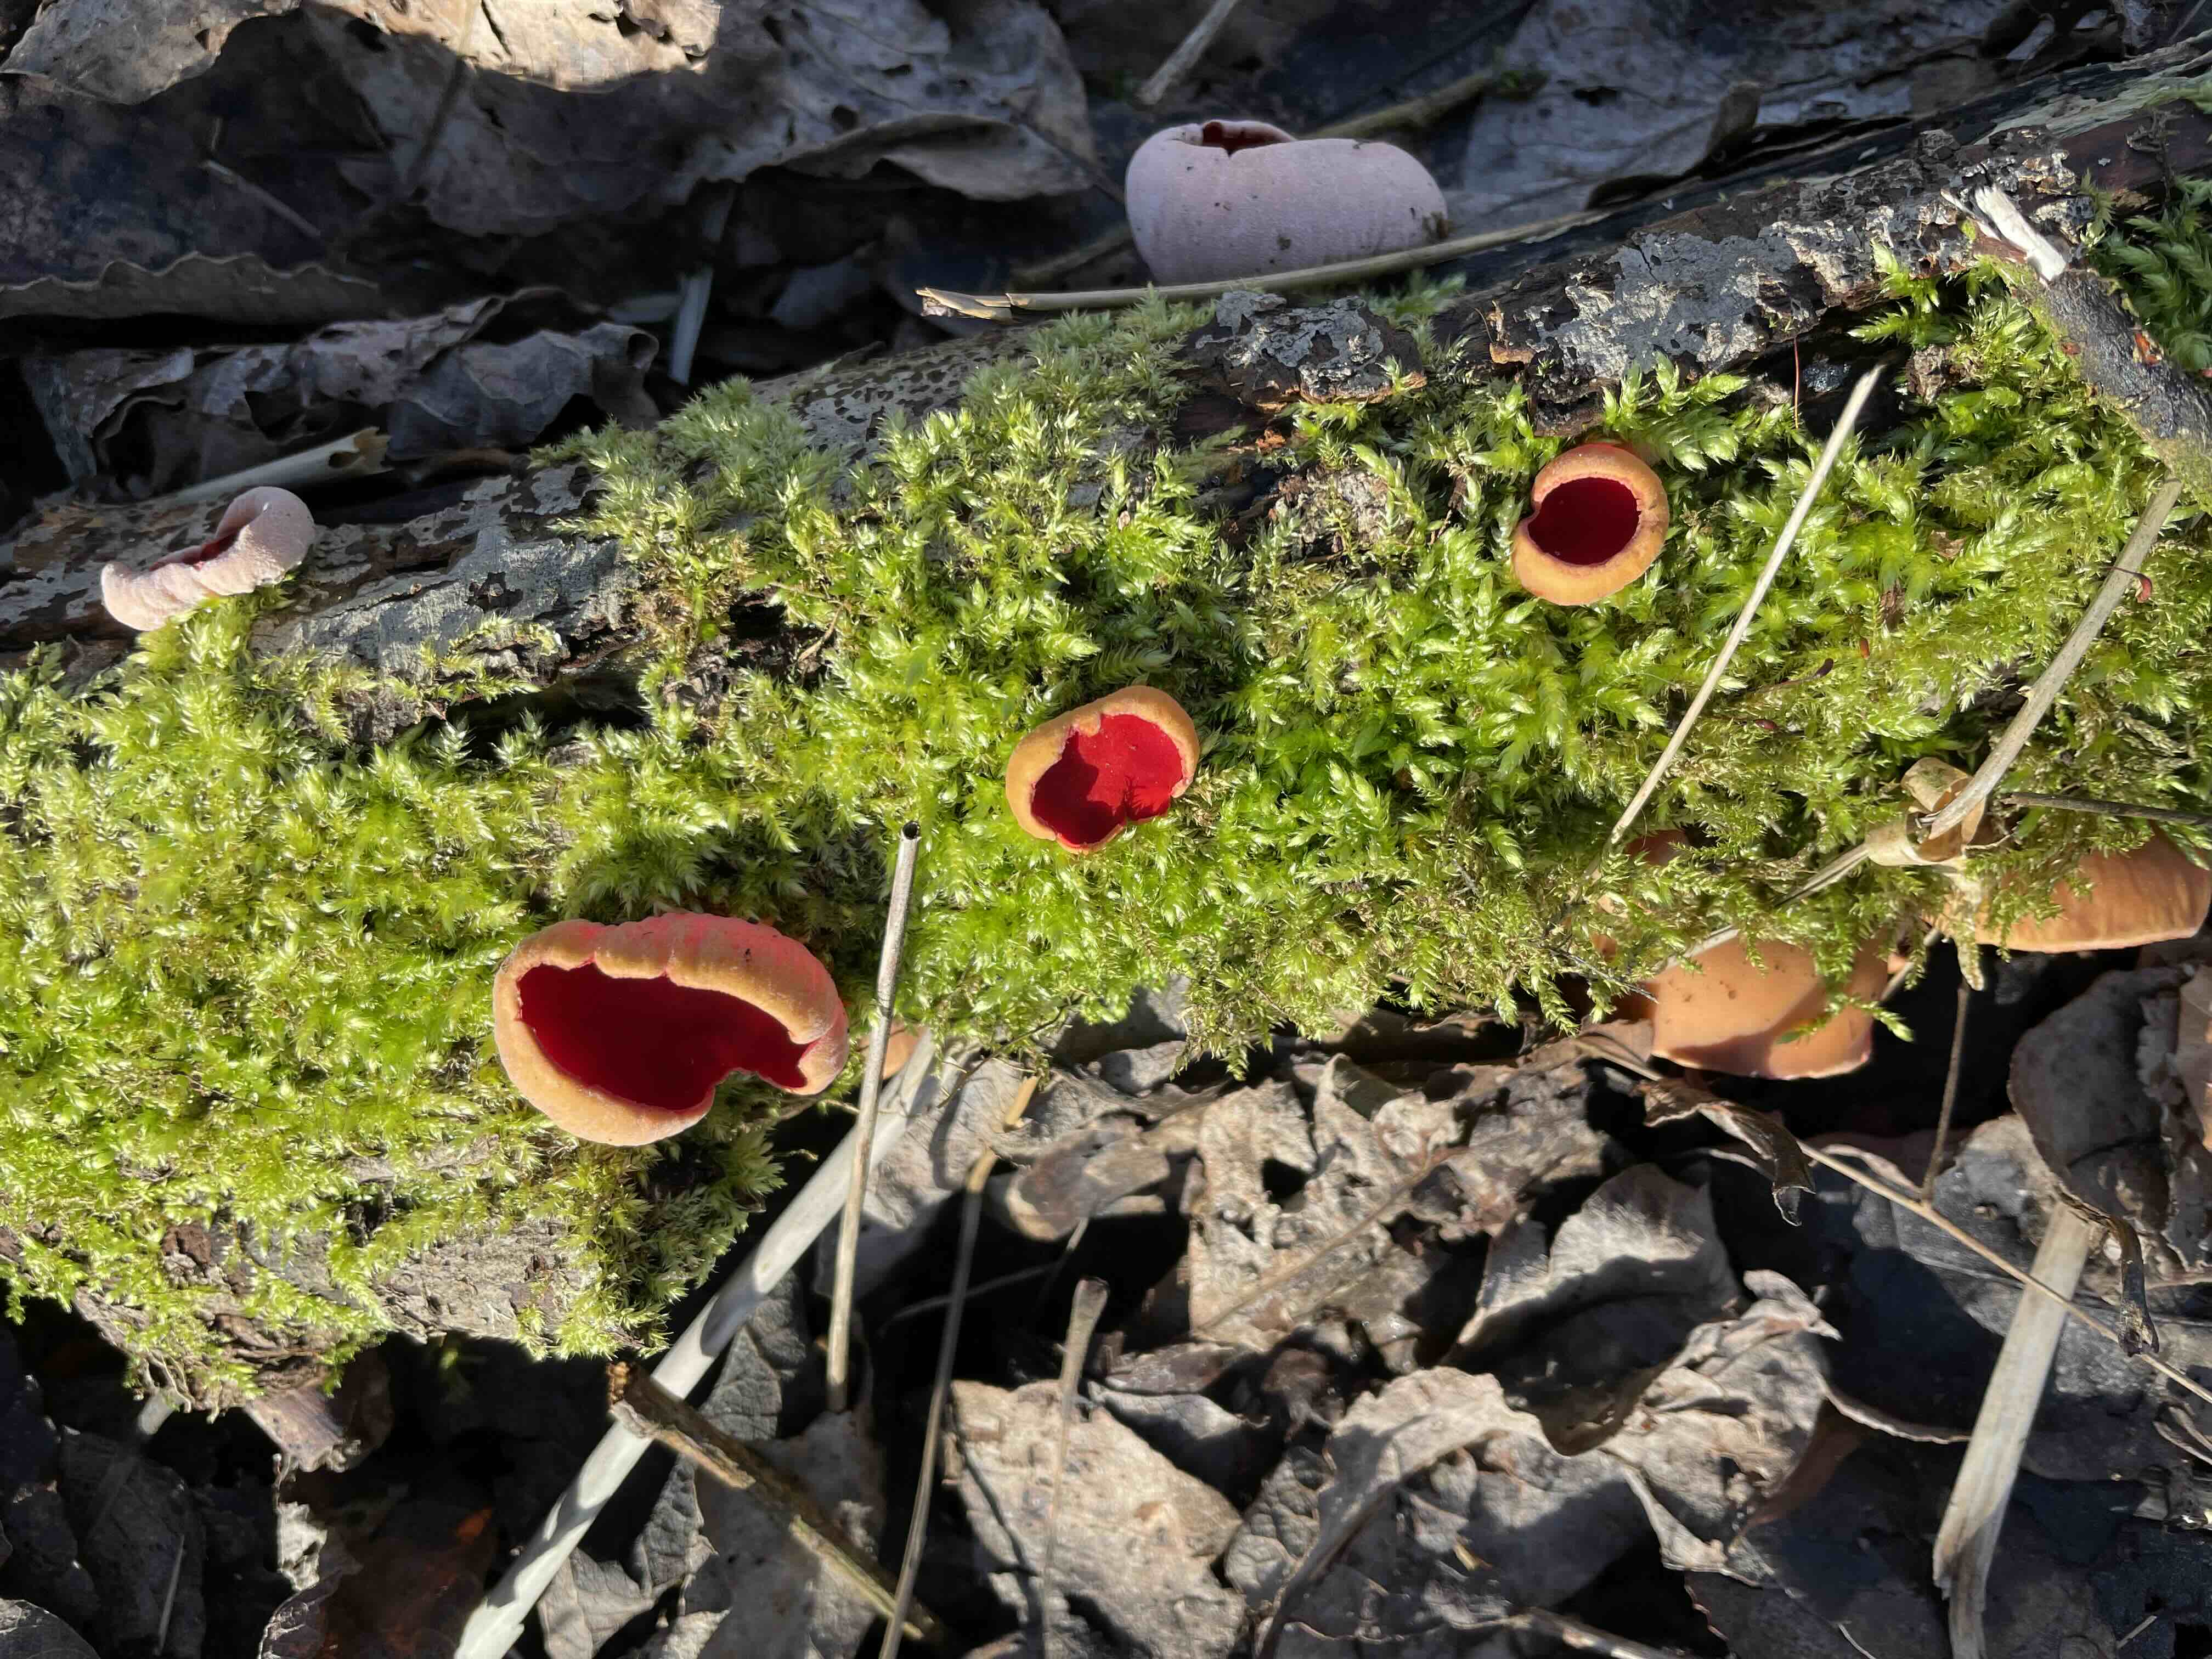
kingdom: Fungi
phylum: Ascomycota
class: Pezizomycetes
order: Pezizales
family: Sarcoscyphaceae
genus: Sarcoscypha
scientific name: Sarcoscypha austriaca
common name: krølhåret pragtbæger
